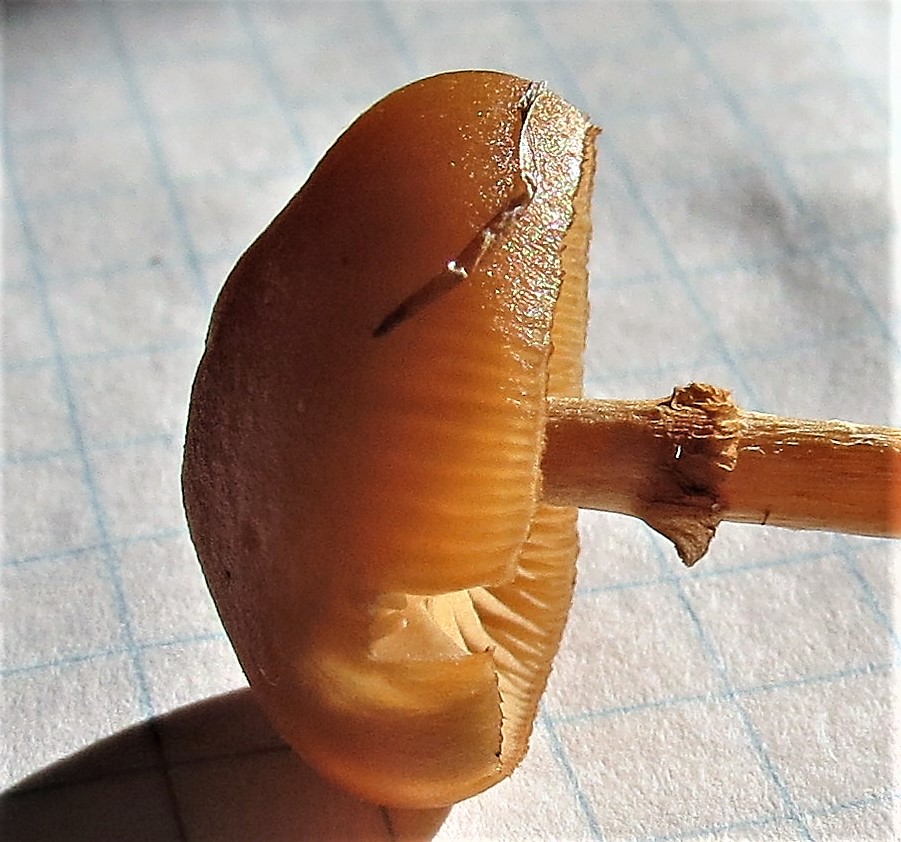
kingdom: Fungi
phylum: Basidiomycota
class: Agaricomycetes
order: Agaricales
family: Hymenogastraceae
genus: Galerina
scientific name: Galerina
